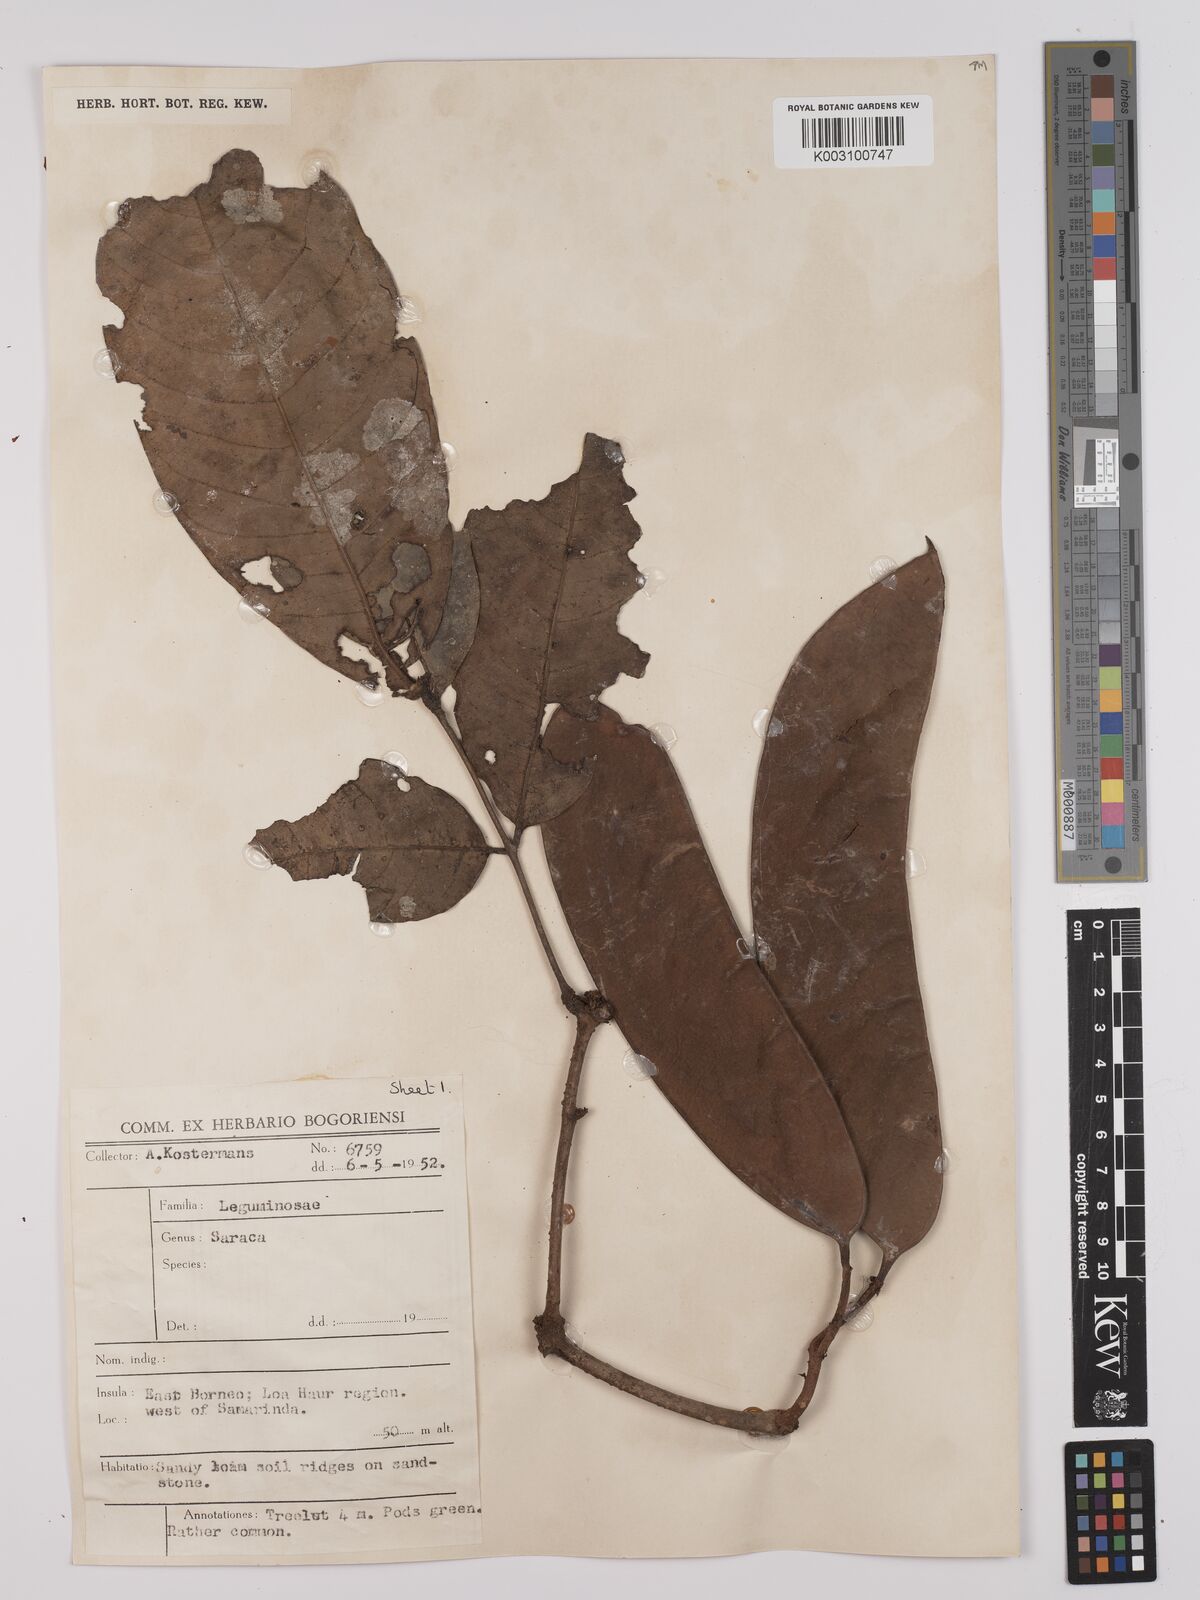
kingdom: Plantae
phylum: Tracheophyta
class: Magnoliopsida
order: Fabales
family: Fabaceae
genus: Saraca
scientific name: Saraca declinata
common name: Red saraca
